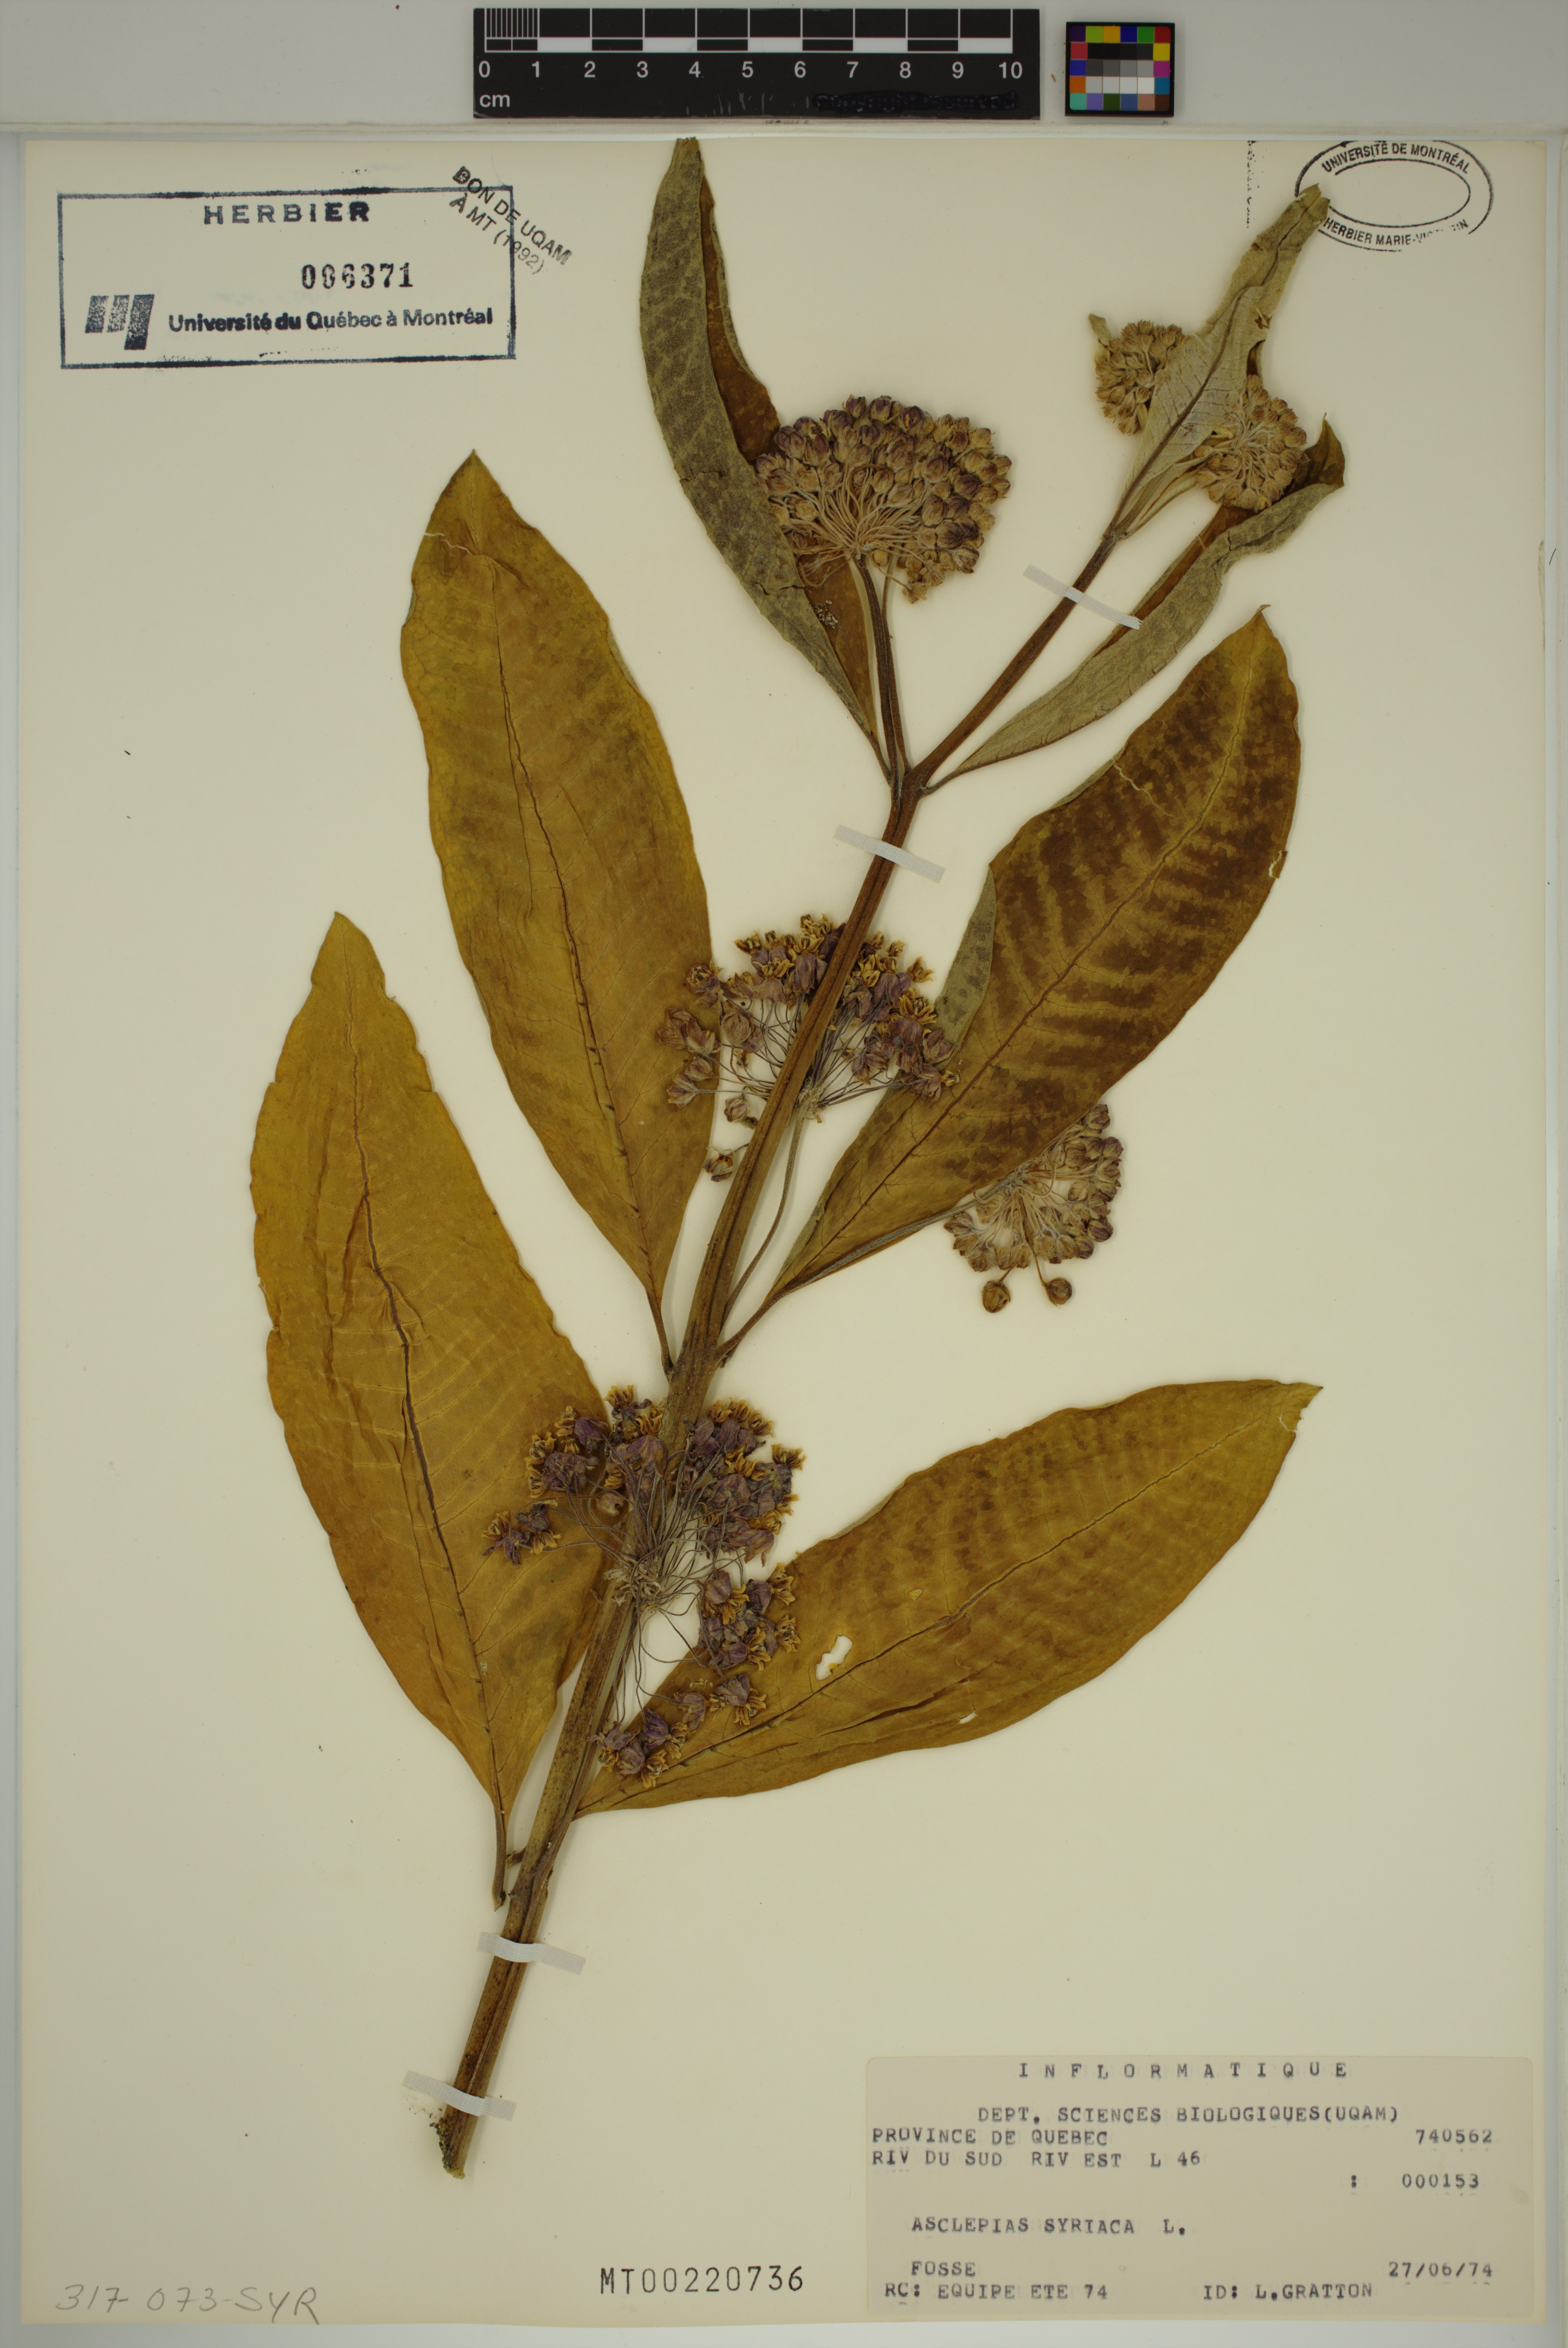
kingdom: Plantae
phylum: Tracheophyta
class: Magnoliopsida
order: Gentianales
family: Apocynaceae
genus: Asclepias
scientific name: Asclepias syriaca
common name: Common milkweed
